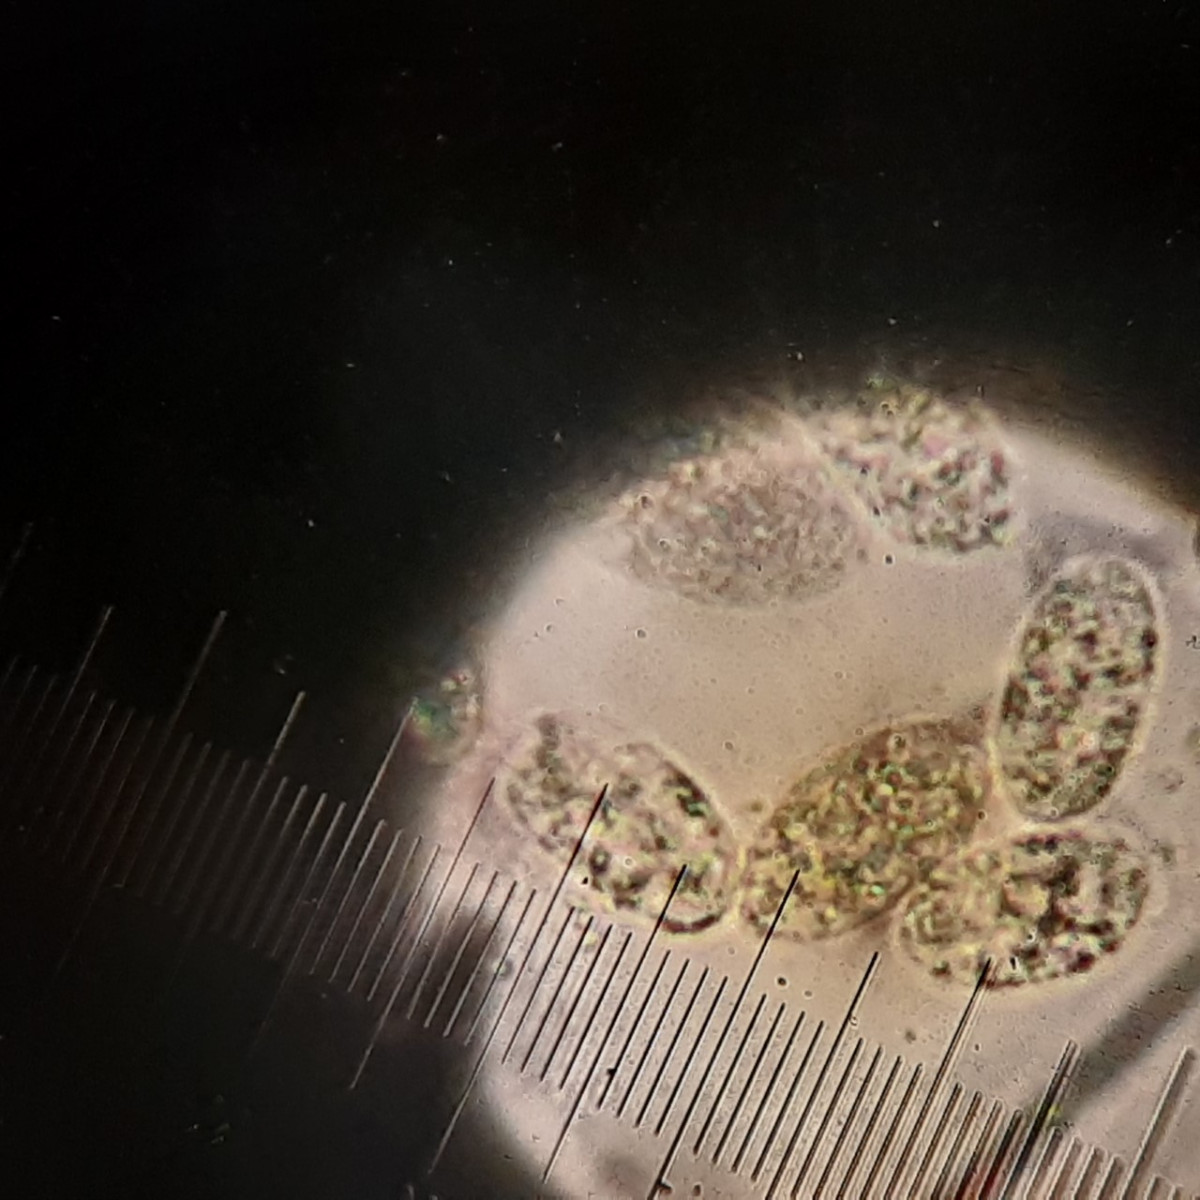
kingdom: Fungi
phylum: Mucoromycota
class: Mucoromycetes
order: Mucorales
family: Pilobolaceae
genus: Pilobolus
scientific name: Pilobolus crystallinus
